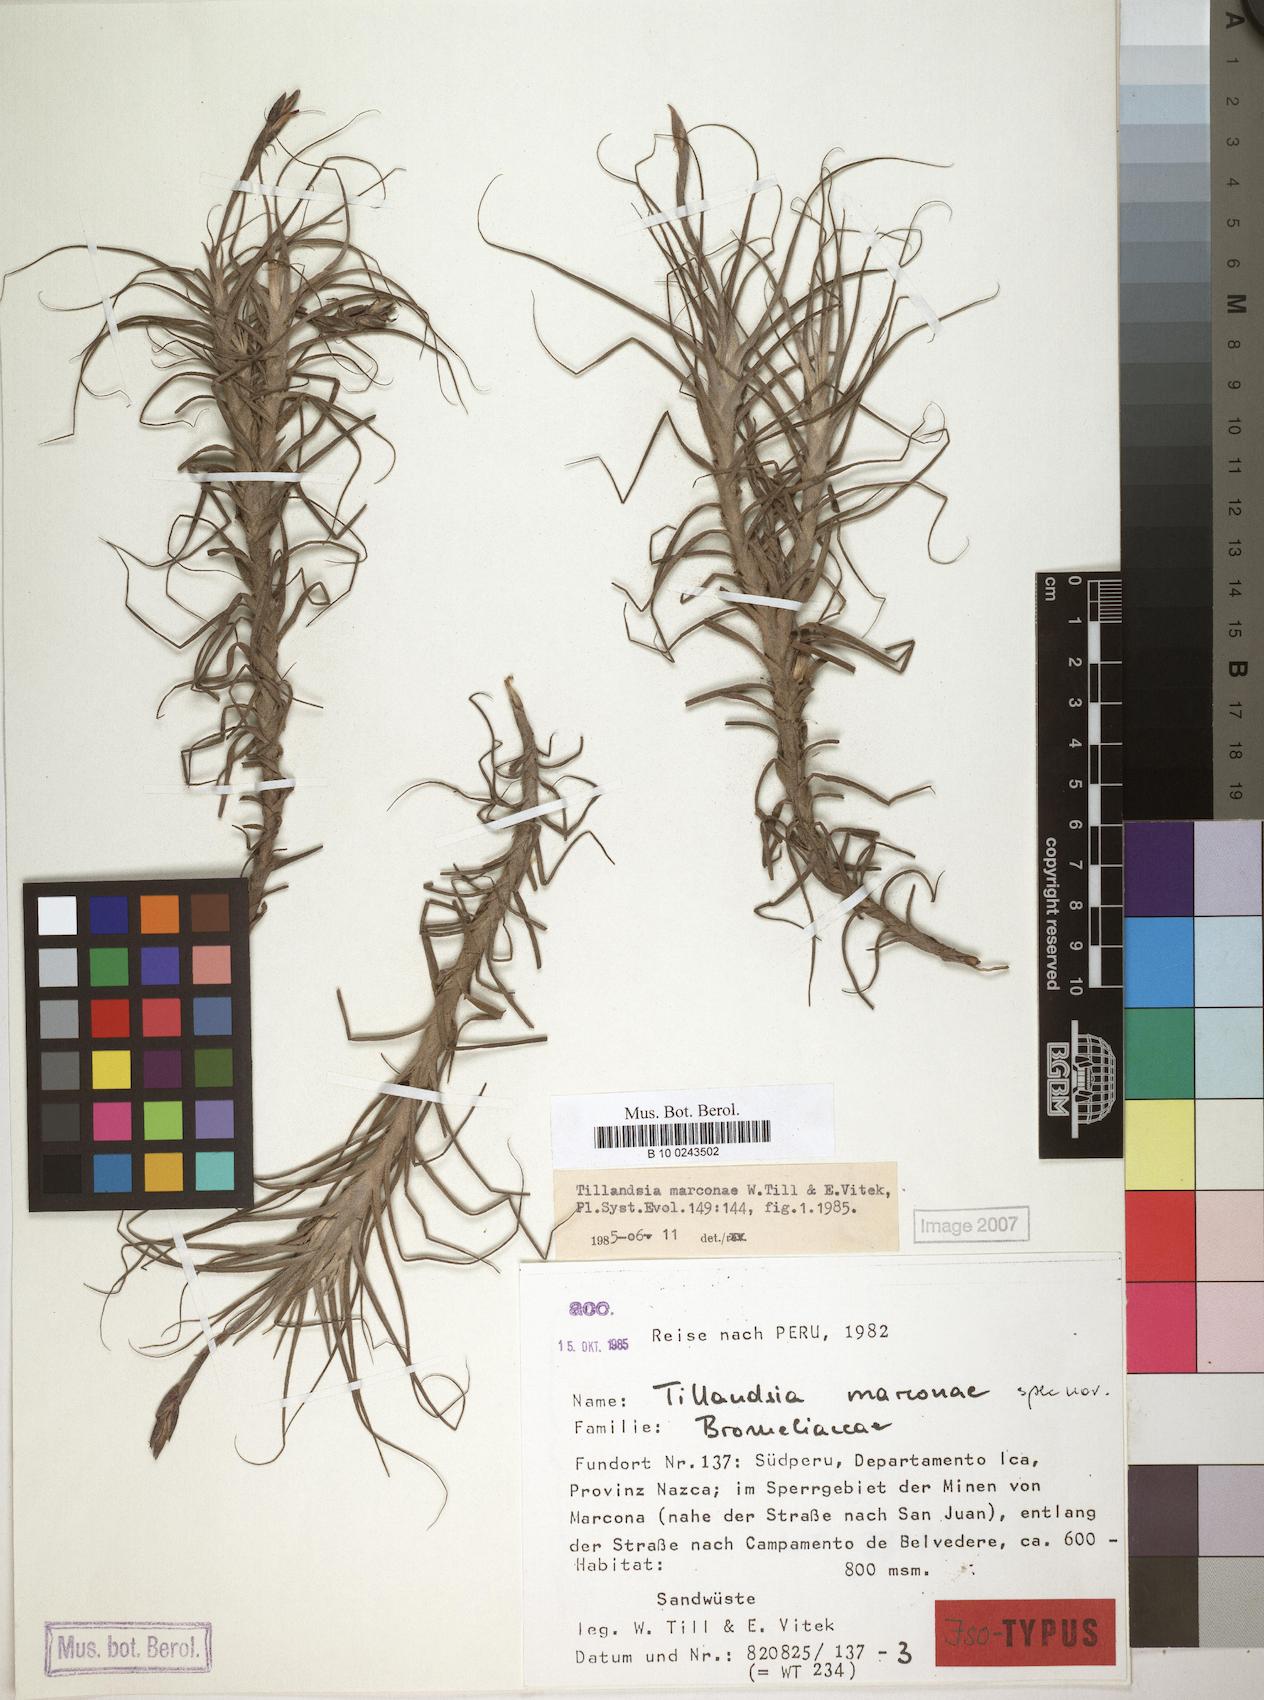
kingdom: Plantae
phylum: Tracheophyta
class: Liliopsida
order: Poales
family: Bromeliaceae
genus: Tillandsia
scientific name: Tillandsia marconae
